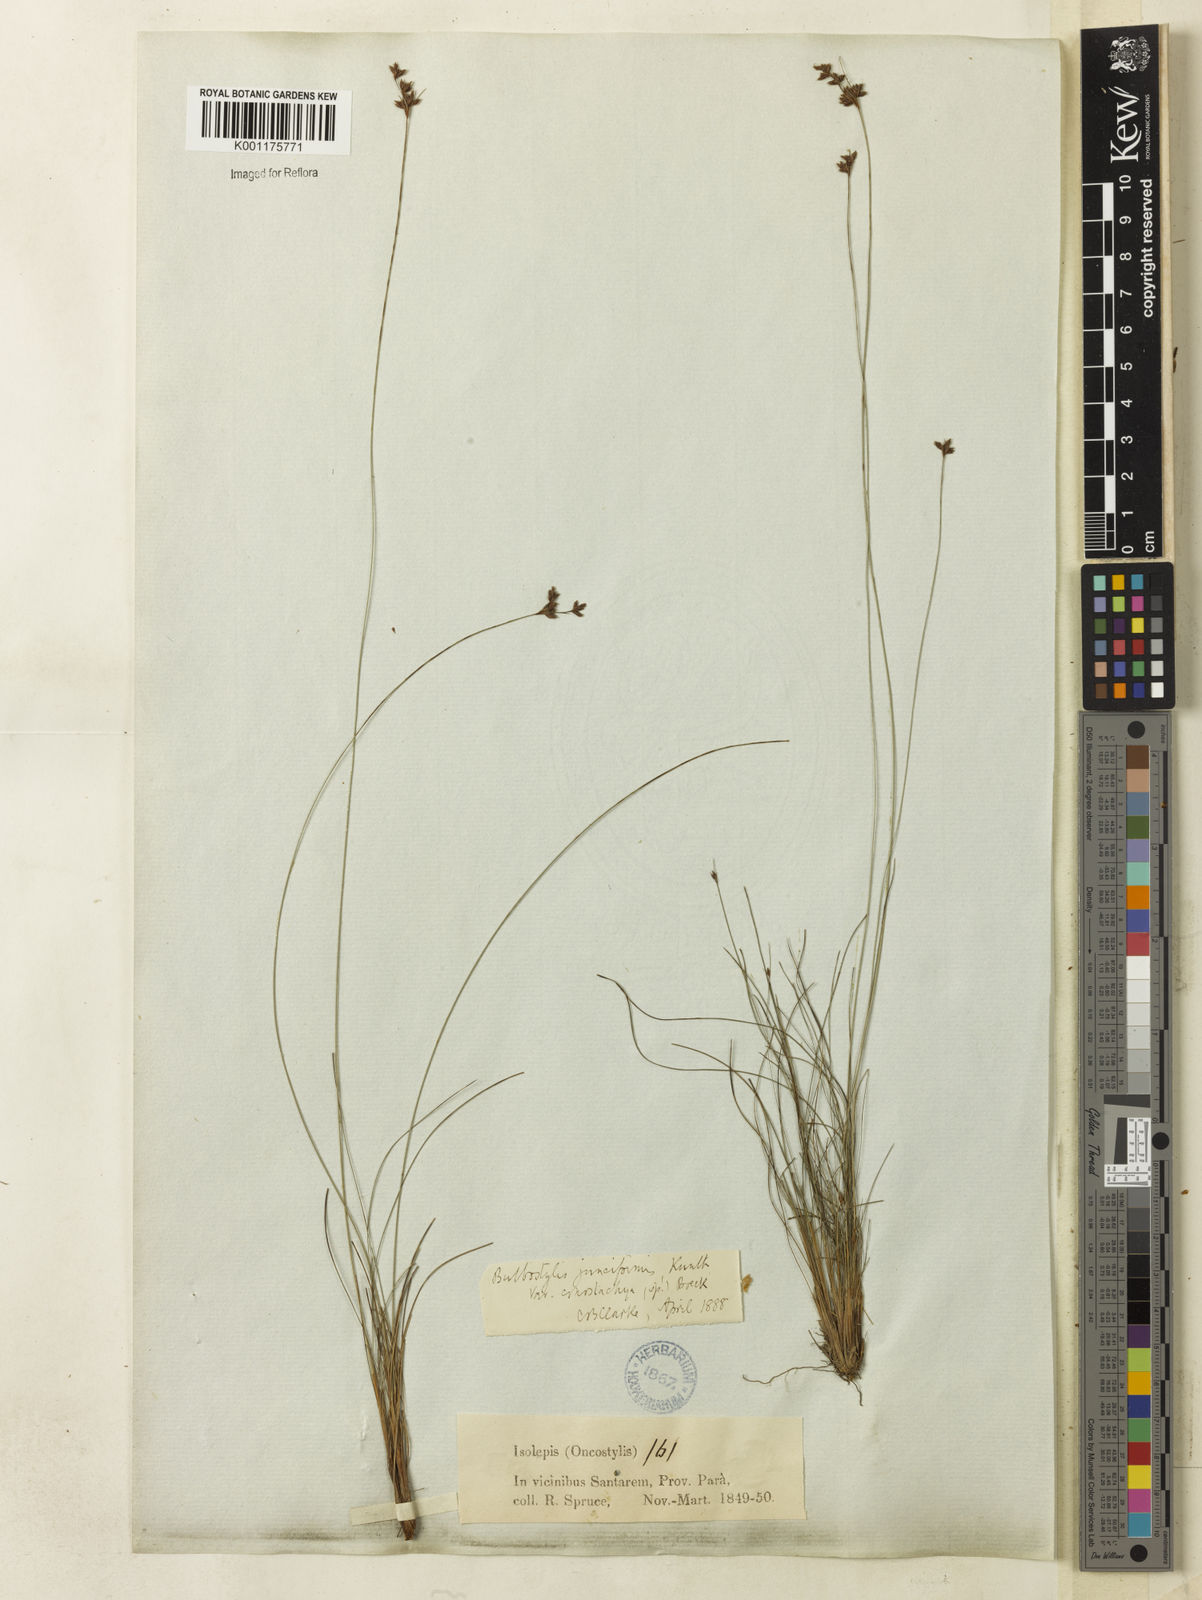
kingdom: Plantae
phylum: Tracheophyta
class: Liliopsida
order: Poales
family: Cyperaceae
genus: Bulbostylis
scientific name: Bulbostylis junciformis
